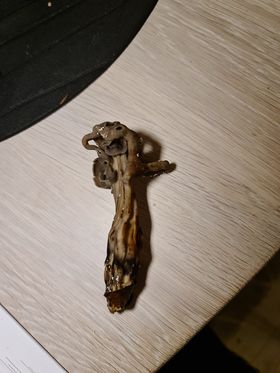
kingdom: Fungi
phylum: Ascomycota
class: Pezizomycetes
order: Pezizales
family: Helvellaceae
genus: Helvella
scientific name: Helvella lacunosa
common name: grubet foldhat
